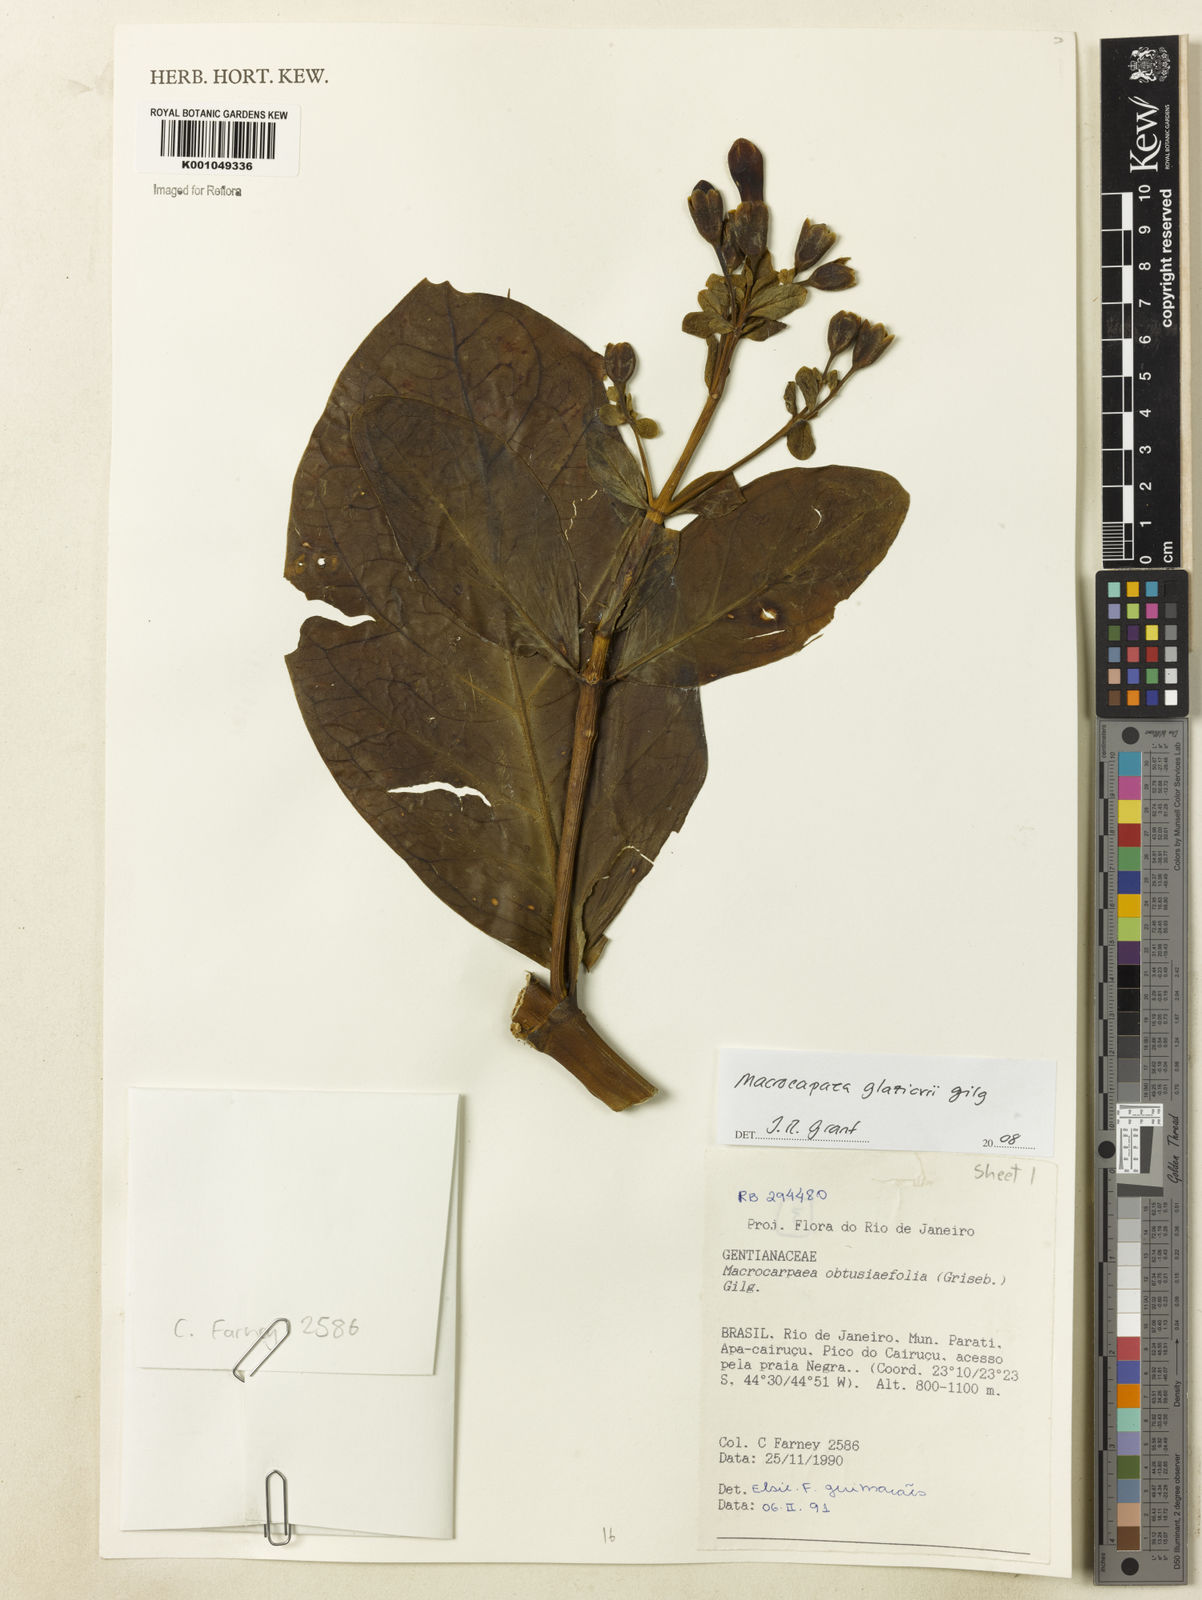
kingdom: Plantae
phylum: Tracheophyta
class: Magnoliopsida
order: Gentianales
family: Gentianaceae
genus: Macrocarpaea
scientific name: Macrocarpaea glaziovii
